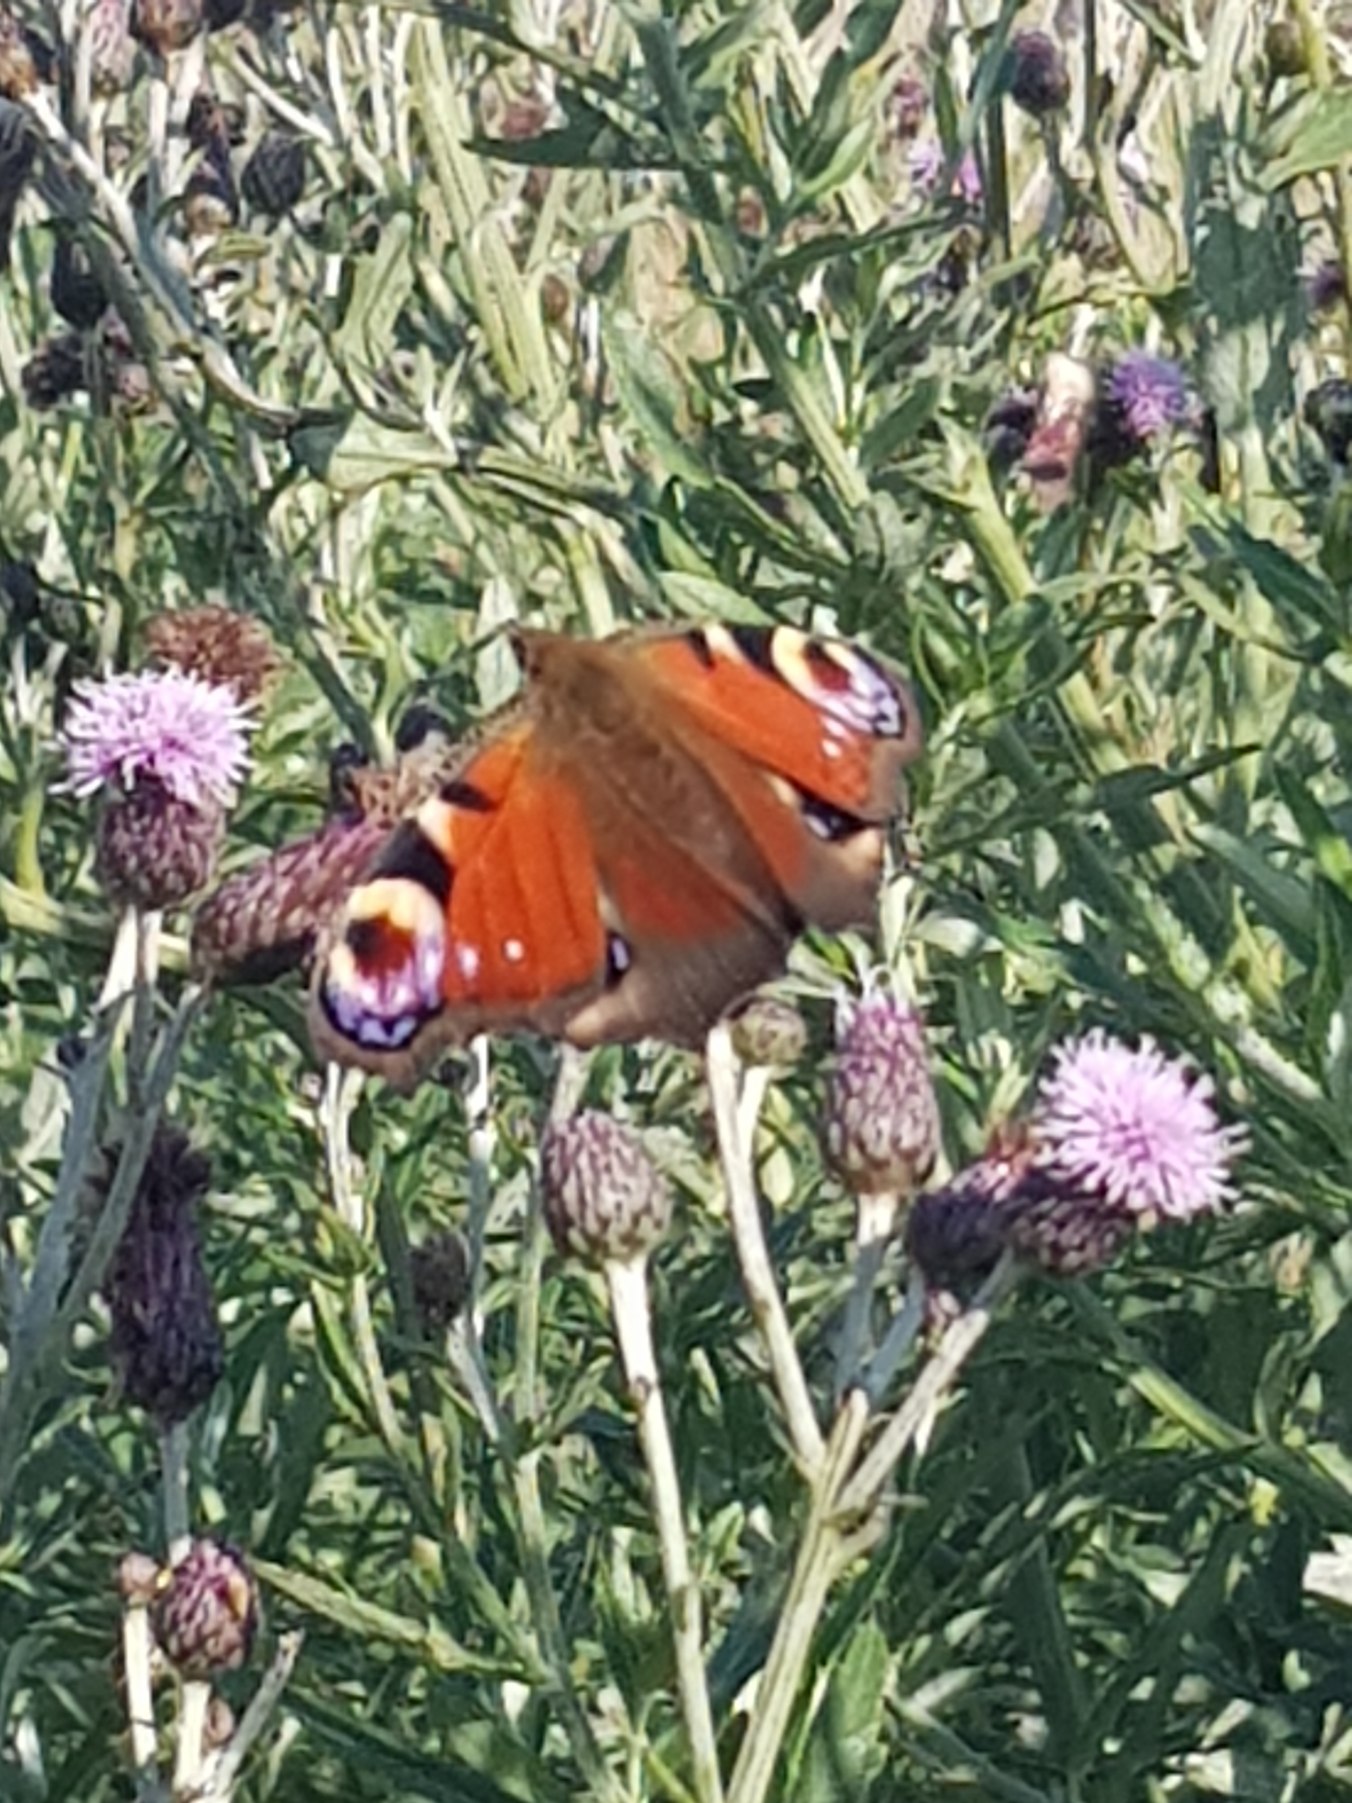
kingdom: Animalia
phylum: Arthropoda
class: Insecta
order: Lepidoptera
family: Nymphalidae
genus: Aglais
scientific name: Aglais io
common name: Dagpåfugleøje
